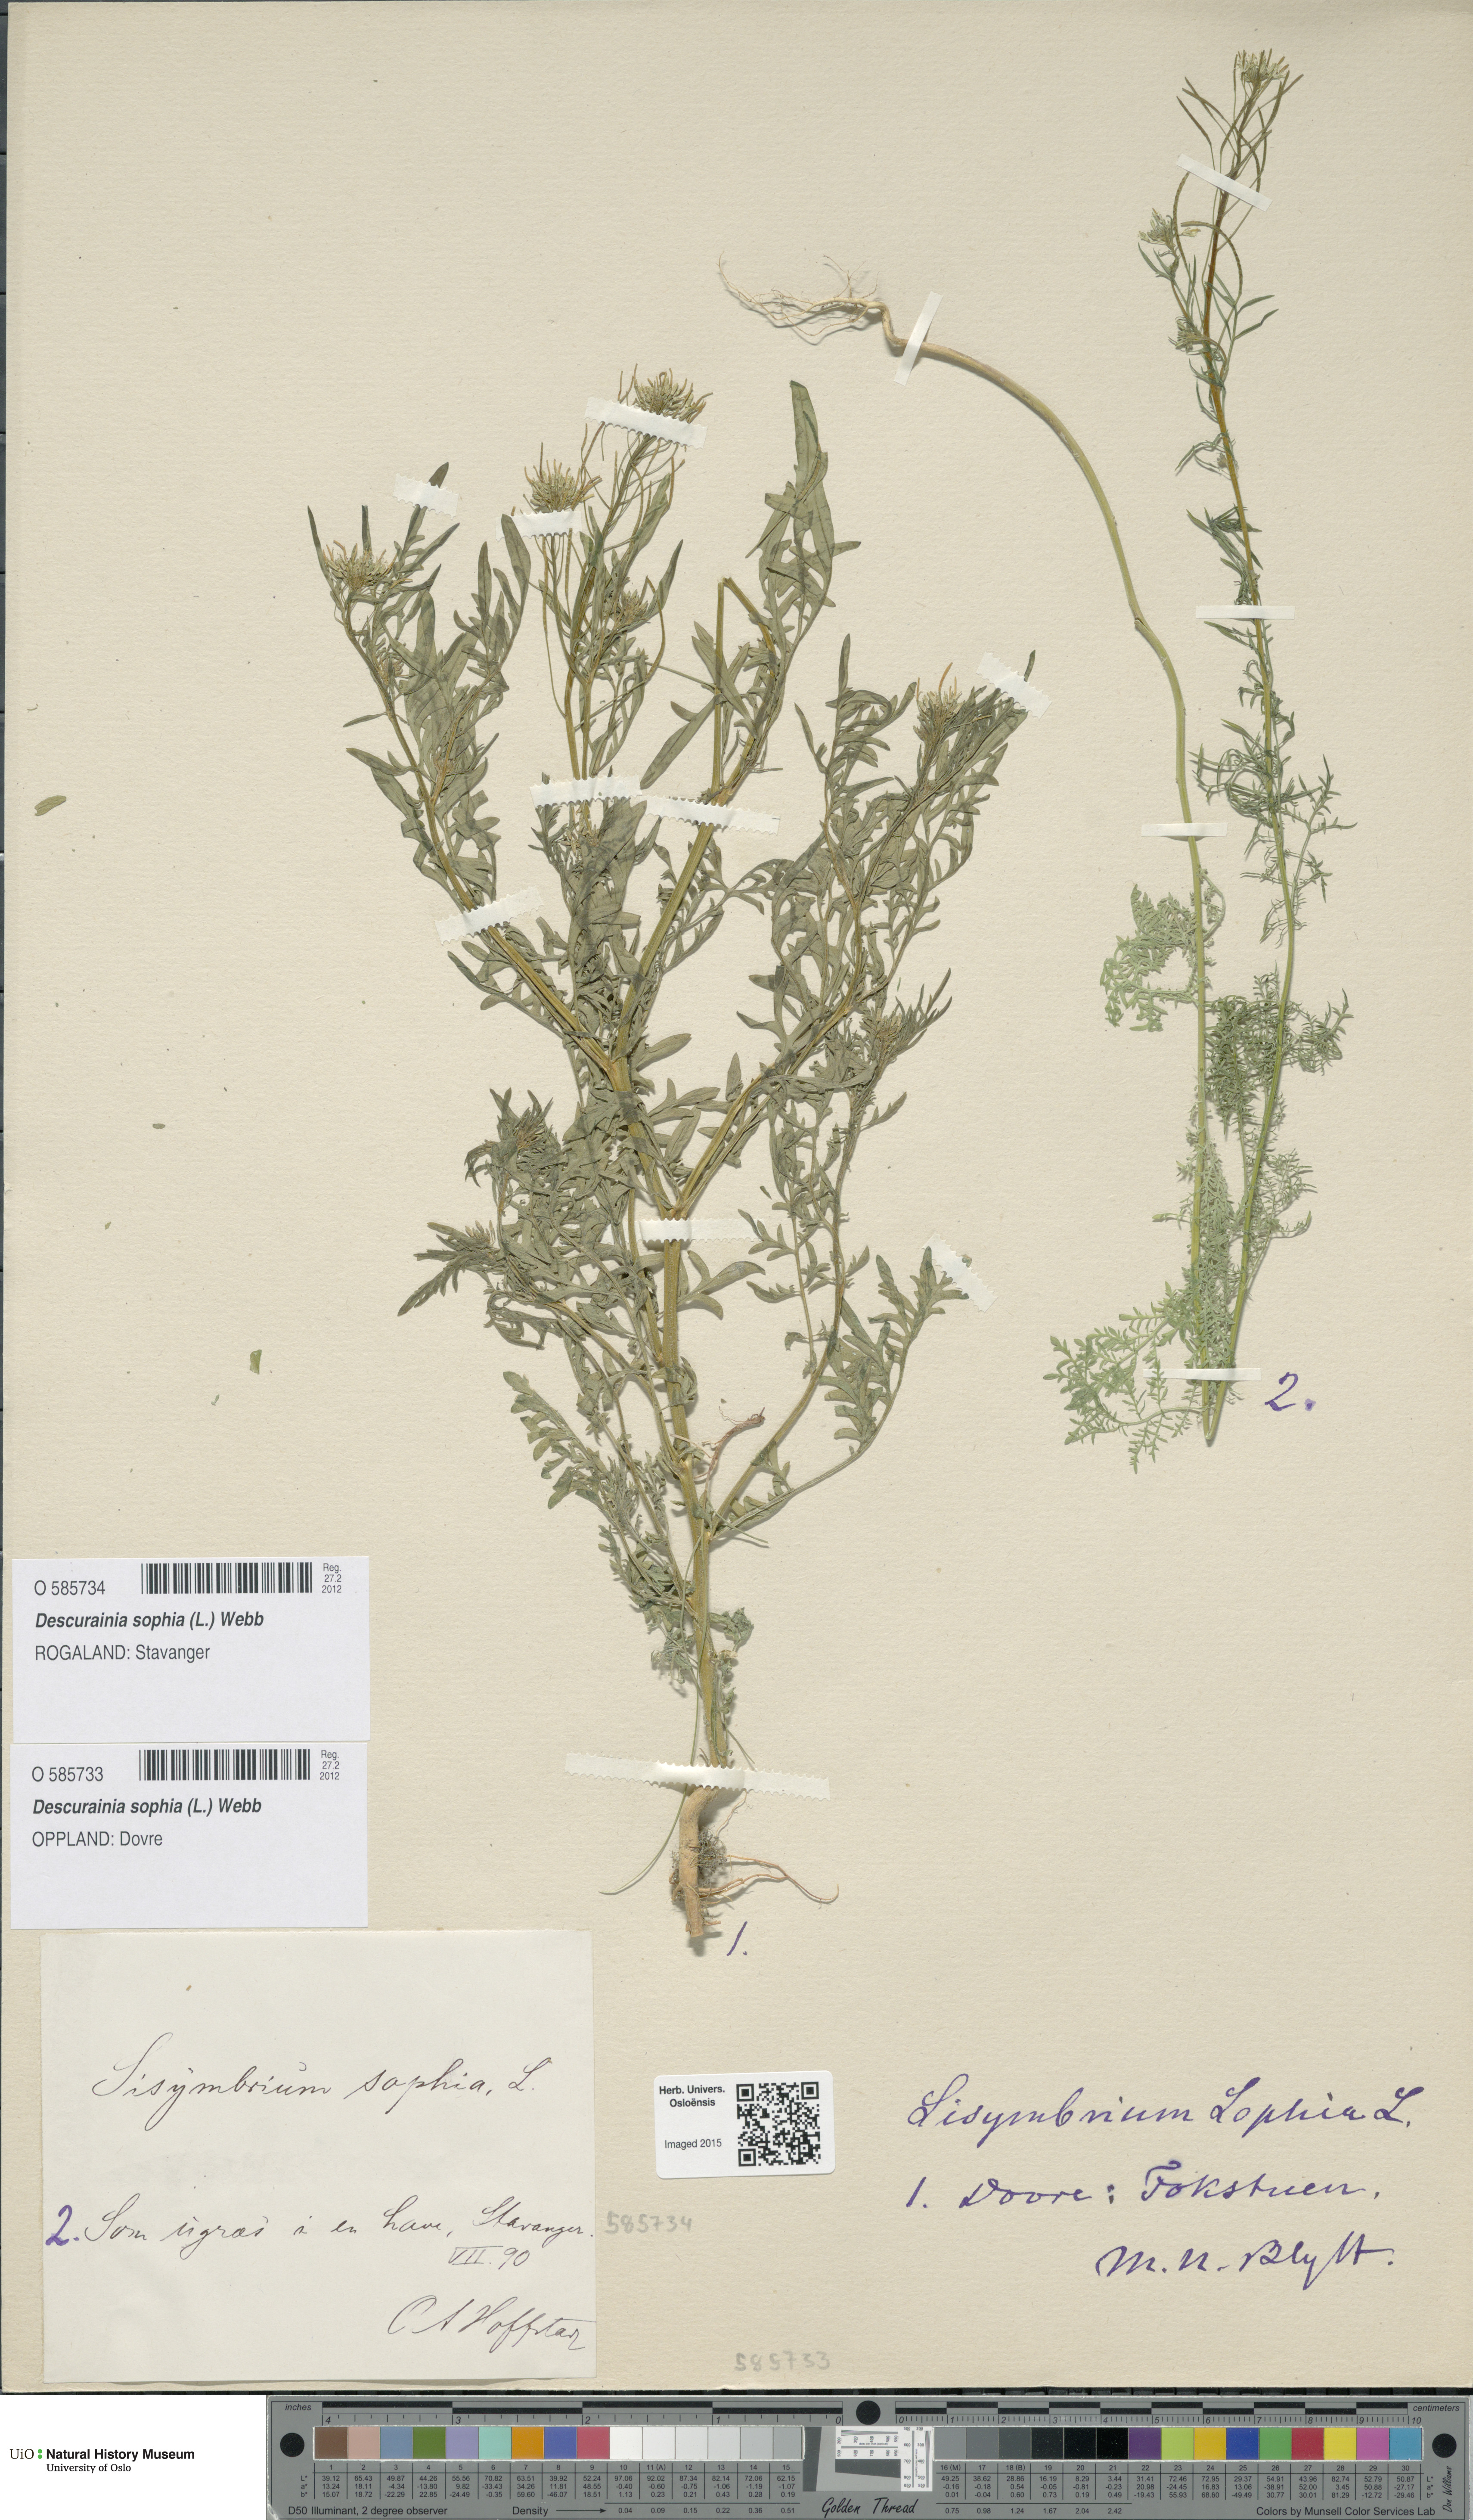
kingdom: Plantae
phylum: Tracheophyta
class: Magnoliopsida
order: Brassicales
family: Brassicaceae
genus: Descurainia
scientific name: Descurainia sophia
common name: Flixweed
